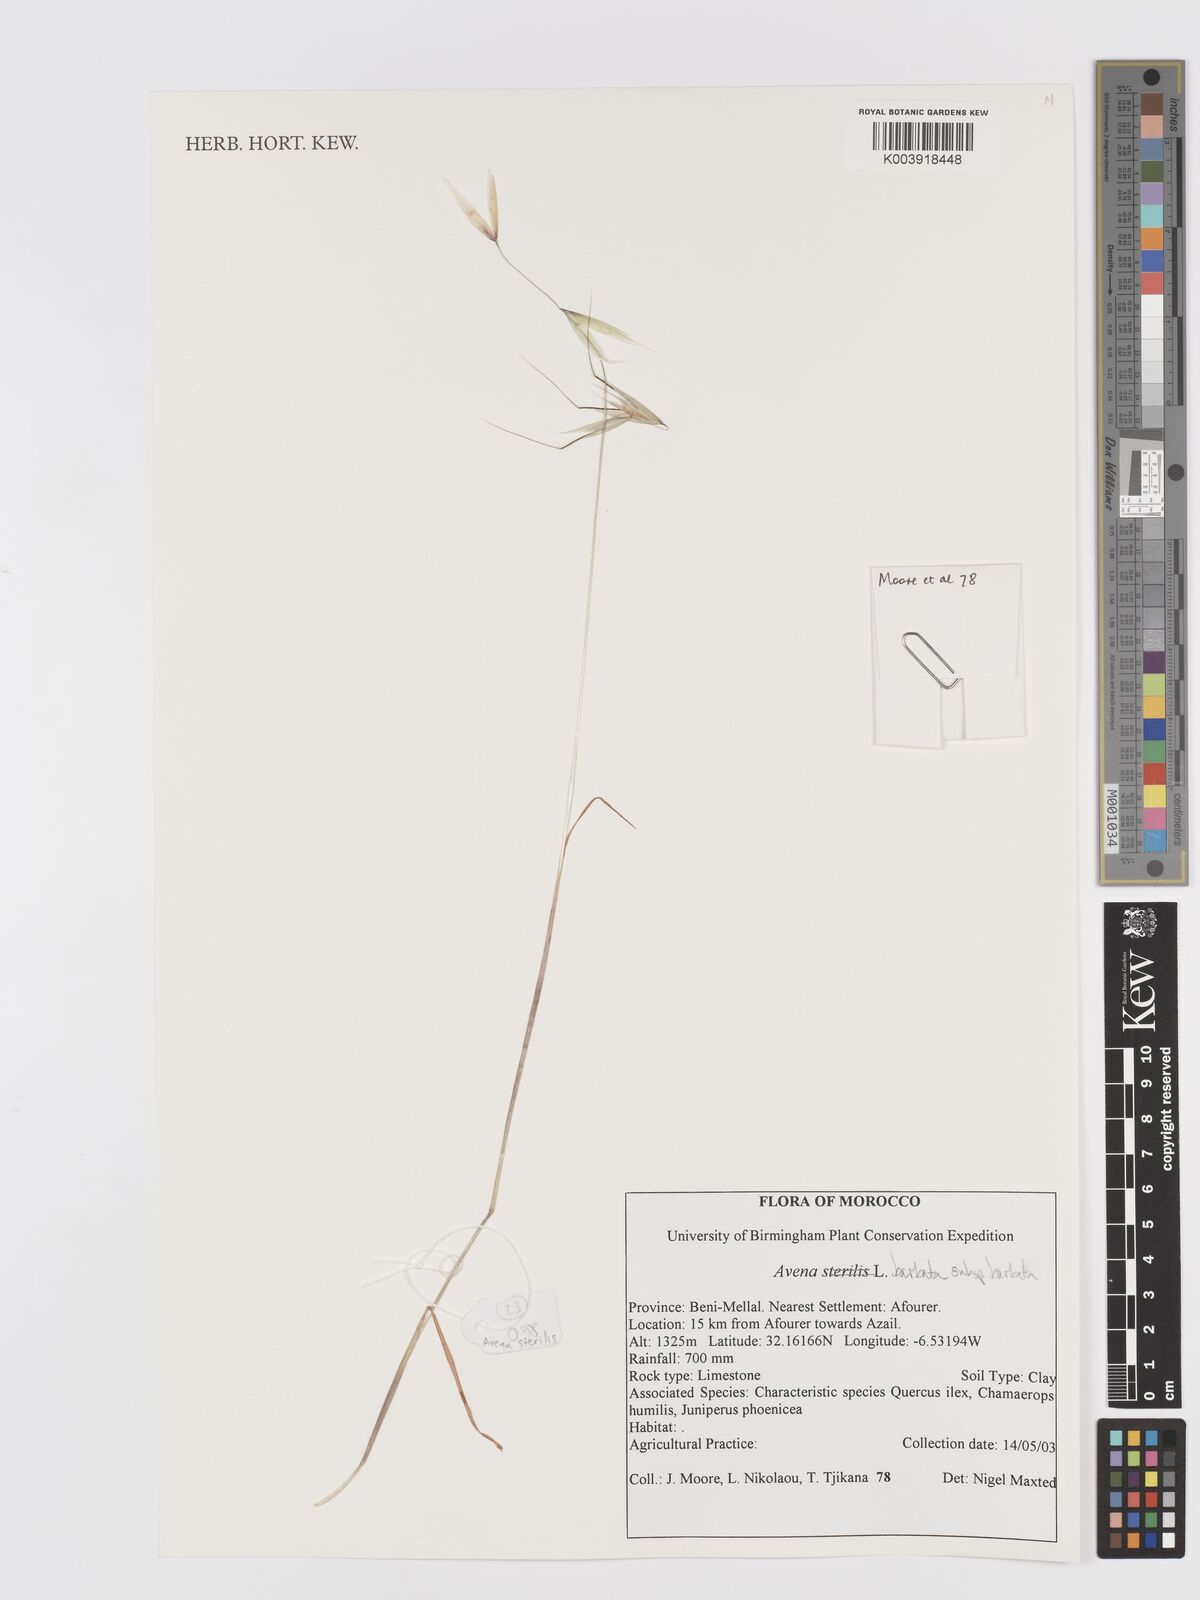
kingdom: Plantae
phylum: Tracheophyta
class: Liliopsida
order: Poales
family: Poaceae
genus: Avena
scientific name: Avena
